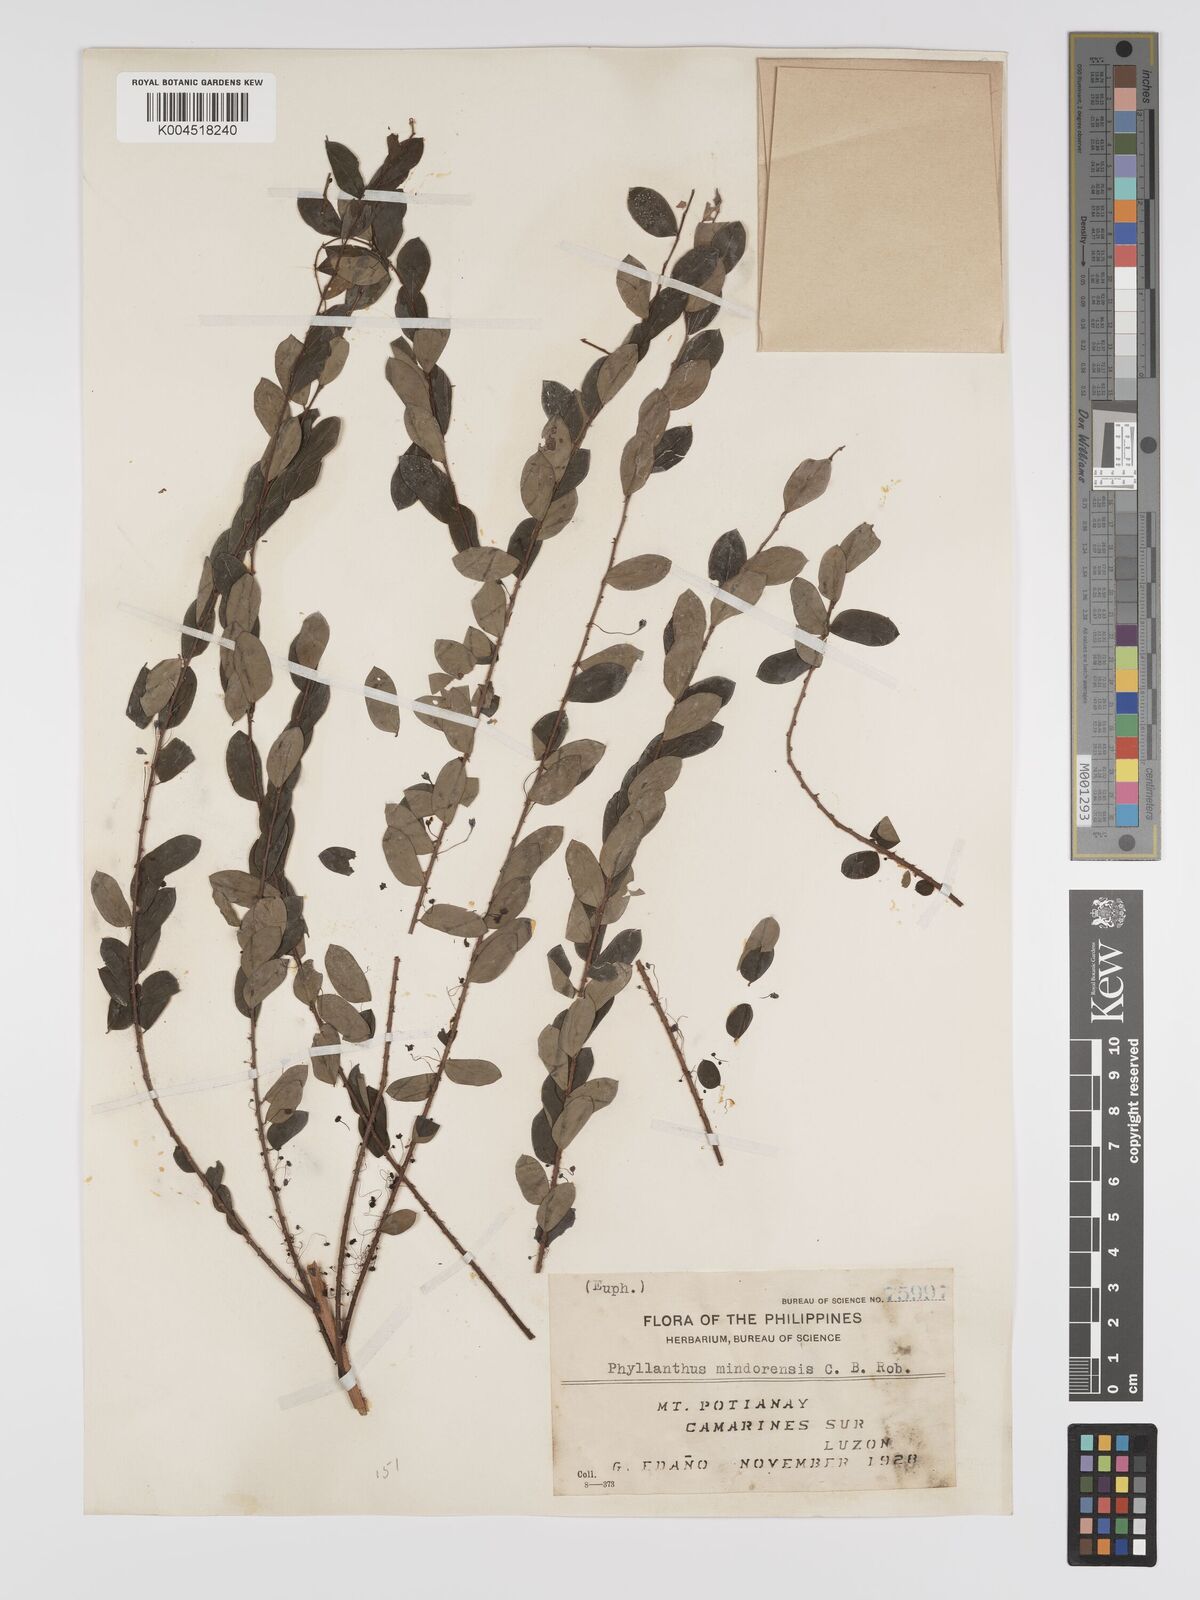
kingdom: Plantae
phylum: Tracheophyta
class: Magnoliopsida
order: Malpighiales
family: Phyllanthaceae
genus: Phyllanthus
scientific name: Phyllanthus celebicus
